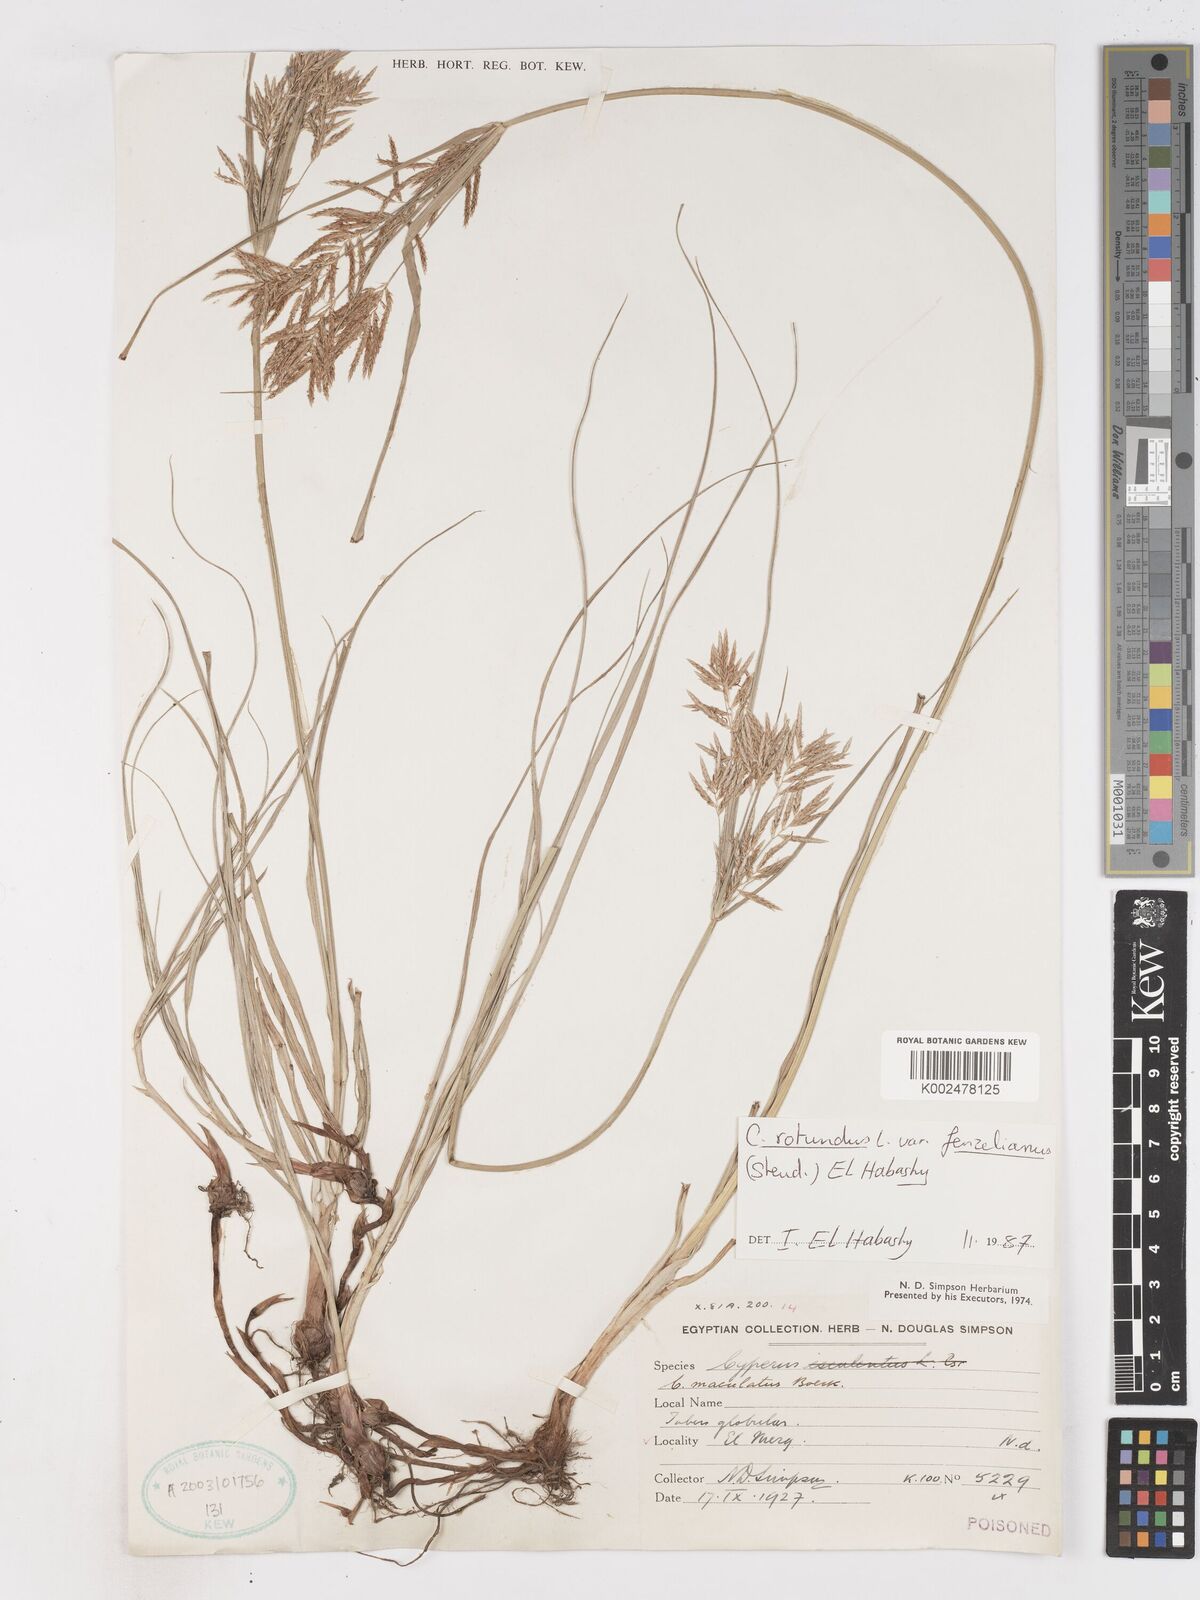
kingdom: Plantae
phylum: Tracheophyta
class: Liliopsida
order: Poales
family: Cyperaceae
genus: Cyperus
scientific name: Cyperus rotundus
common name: Nutgrass
